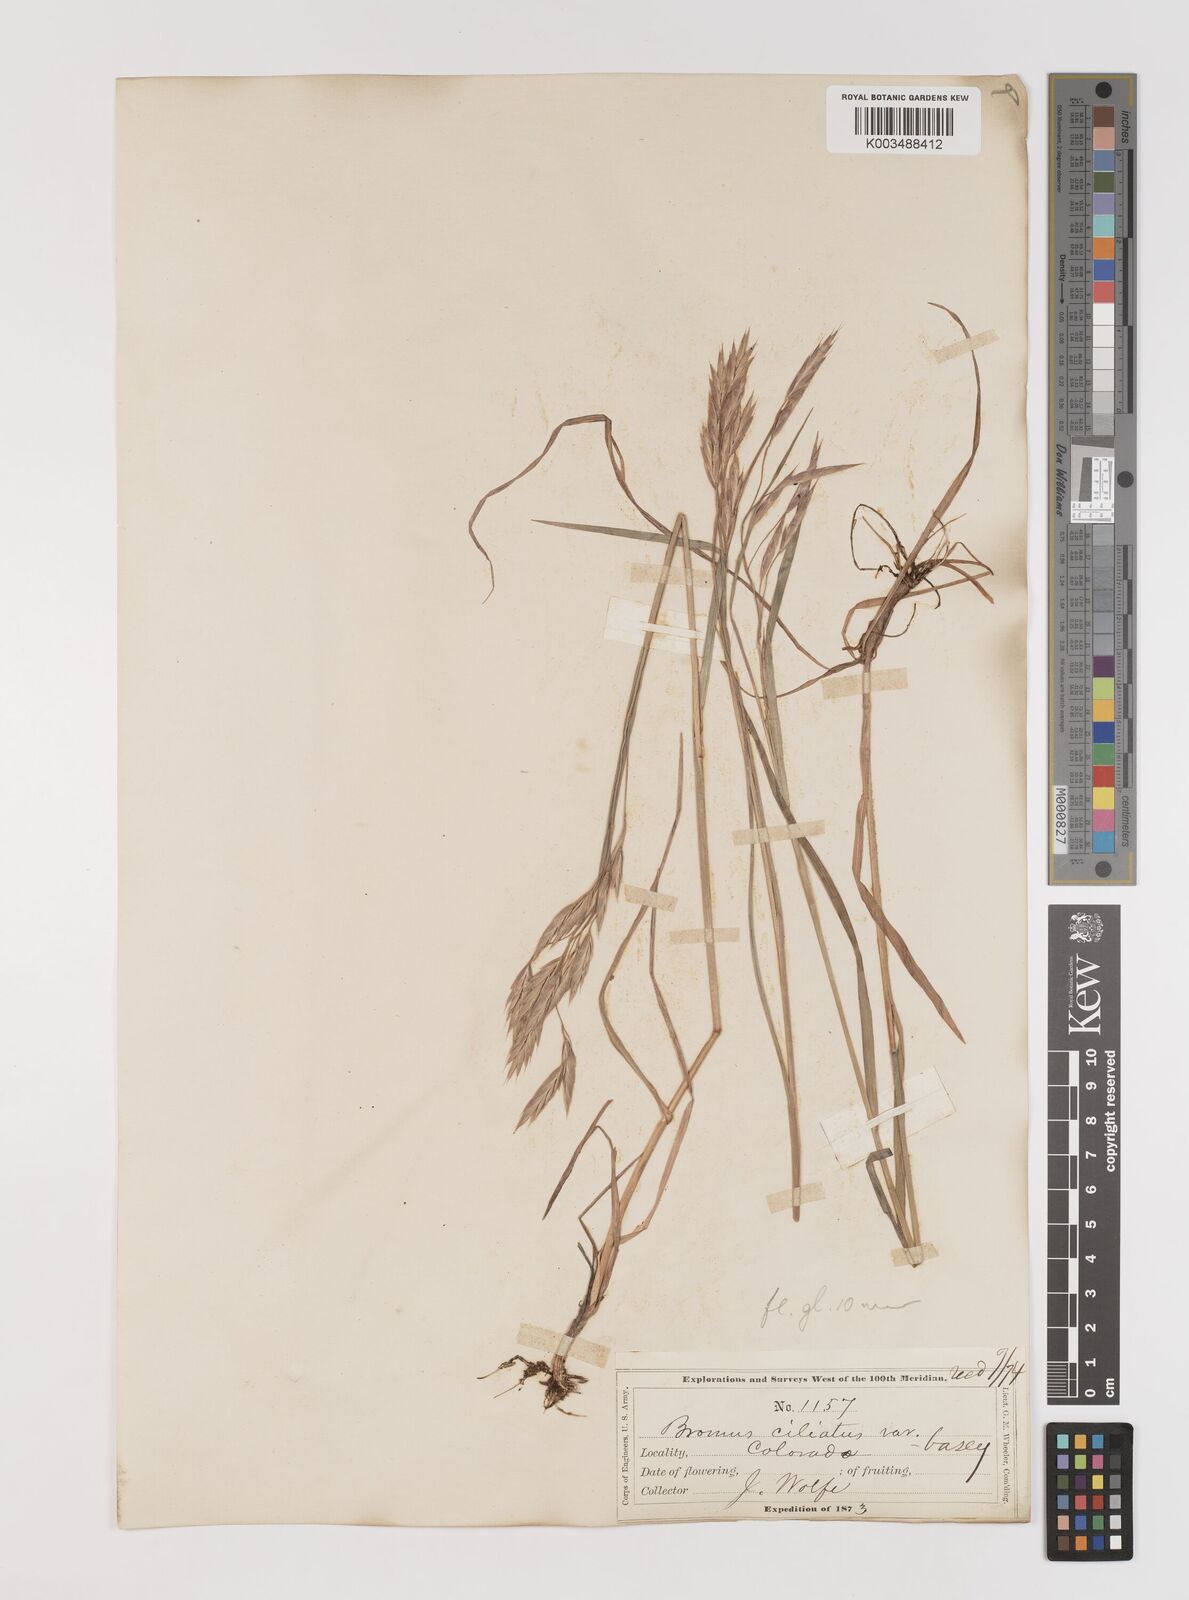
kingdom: Plantae
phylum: Tracheophyta
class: Liliopsida
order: Poales
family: Poaceae
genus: Bromus
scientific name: Bromus ciliatus
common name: Fringe brome
